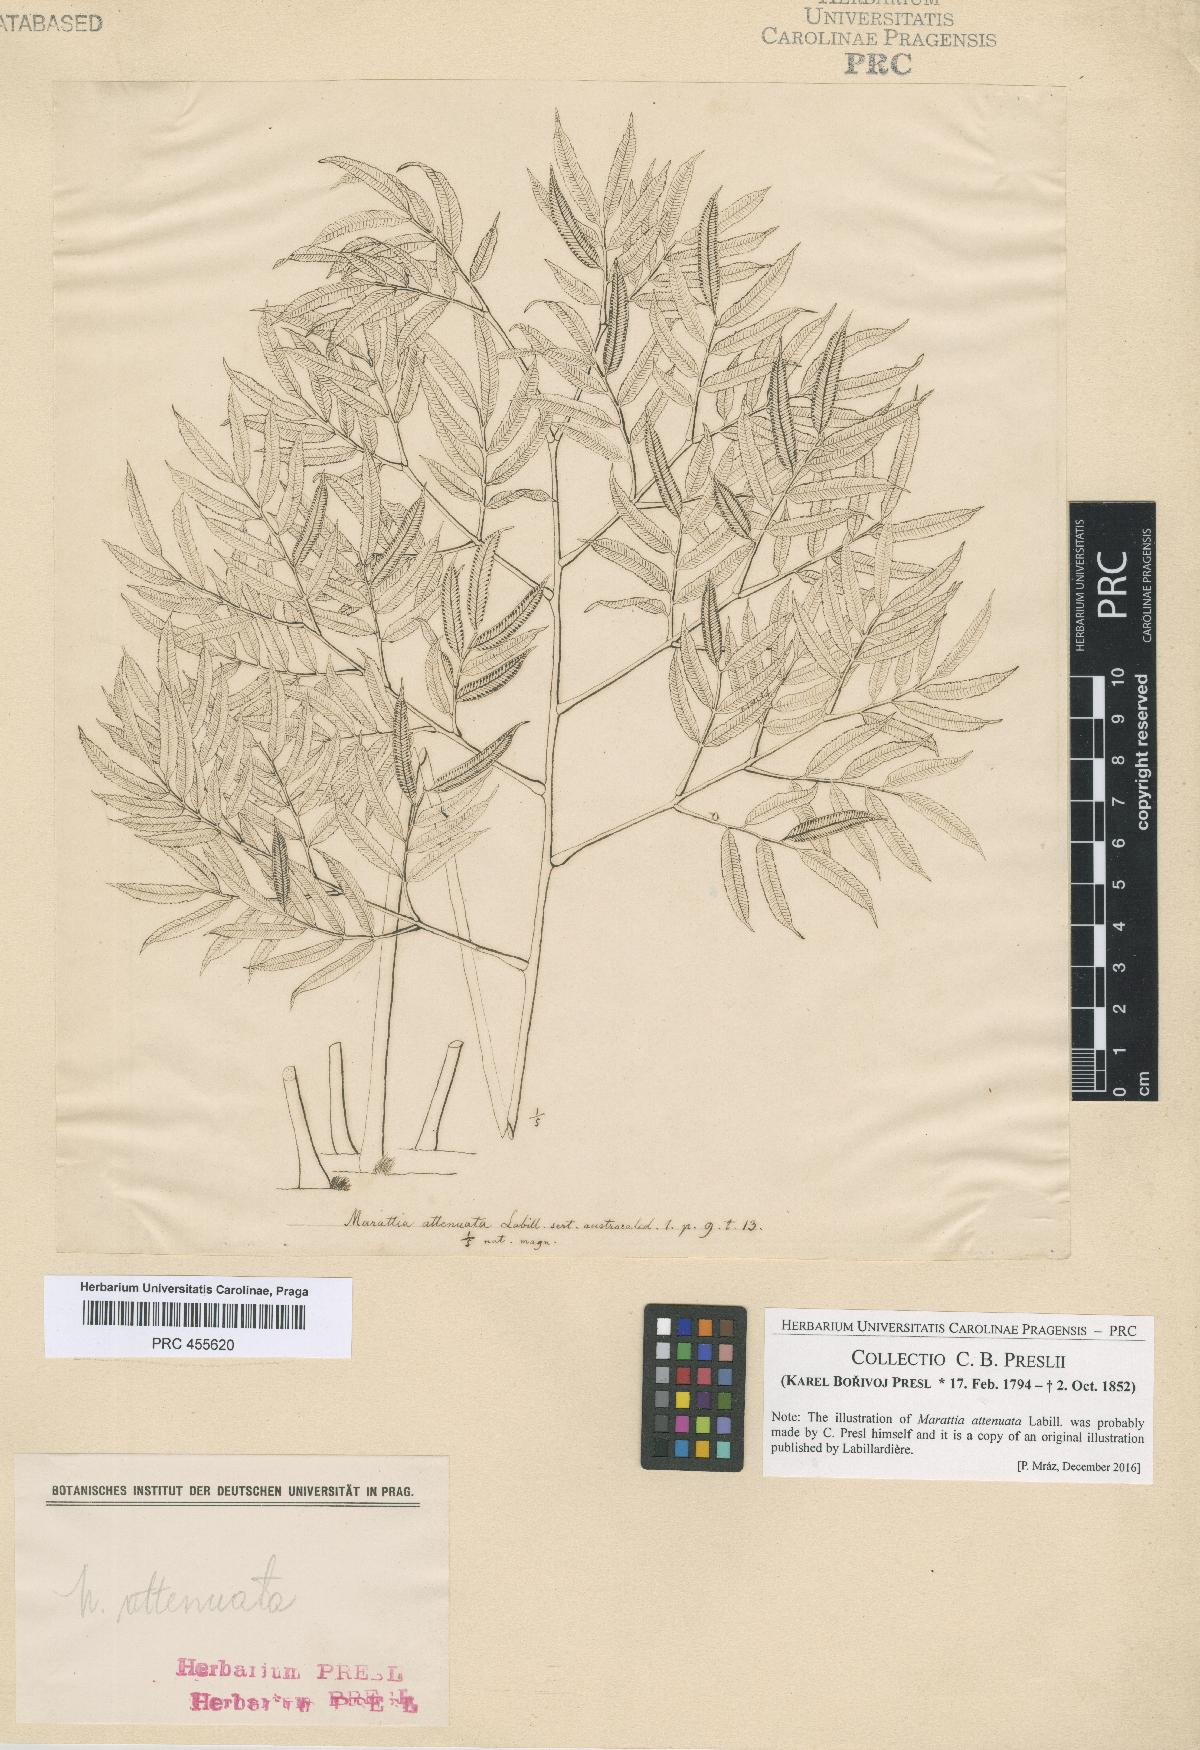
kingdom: Plantae
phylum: Tracheophyta
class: Polypodiopsida
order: Marattiales
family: Marattiaceae
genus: Ptisana
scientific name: Ptisana attenuata
